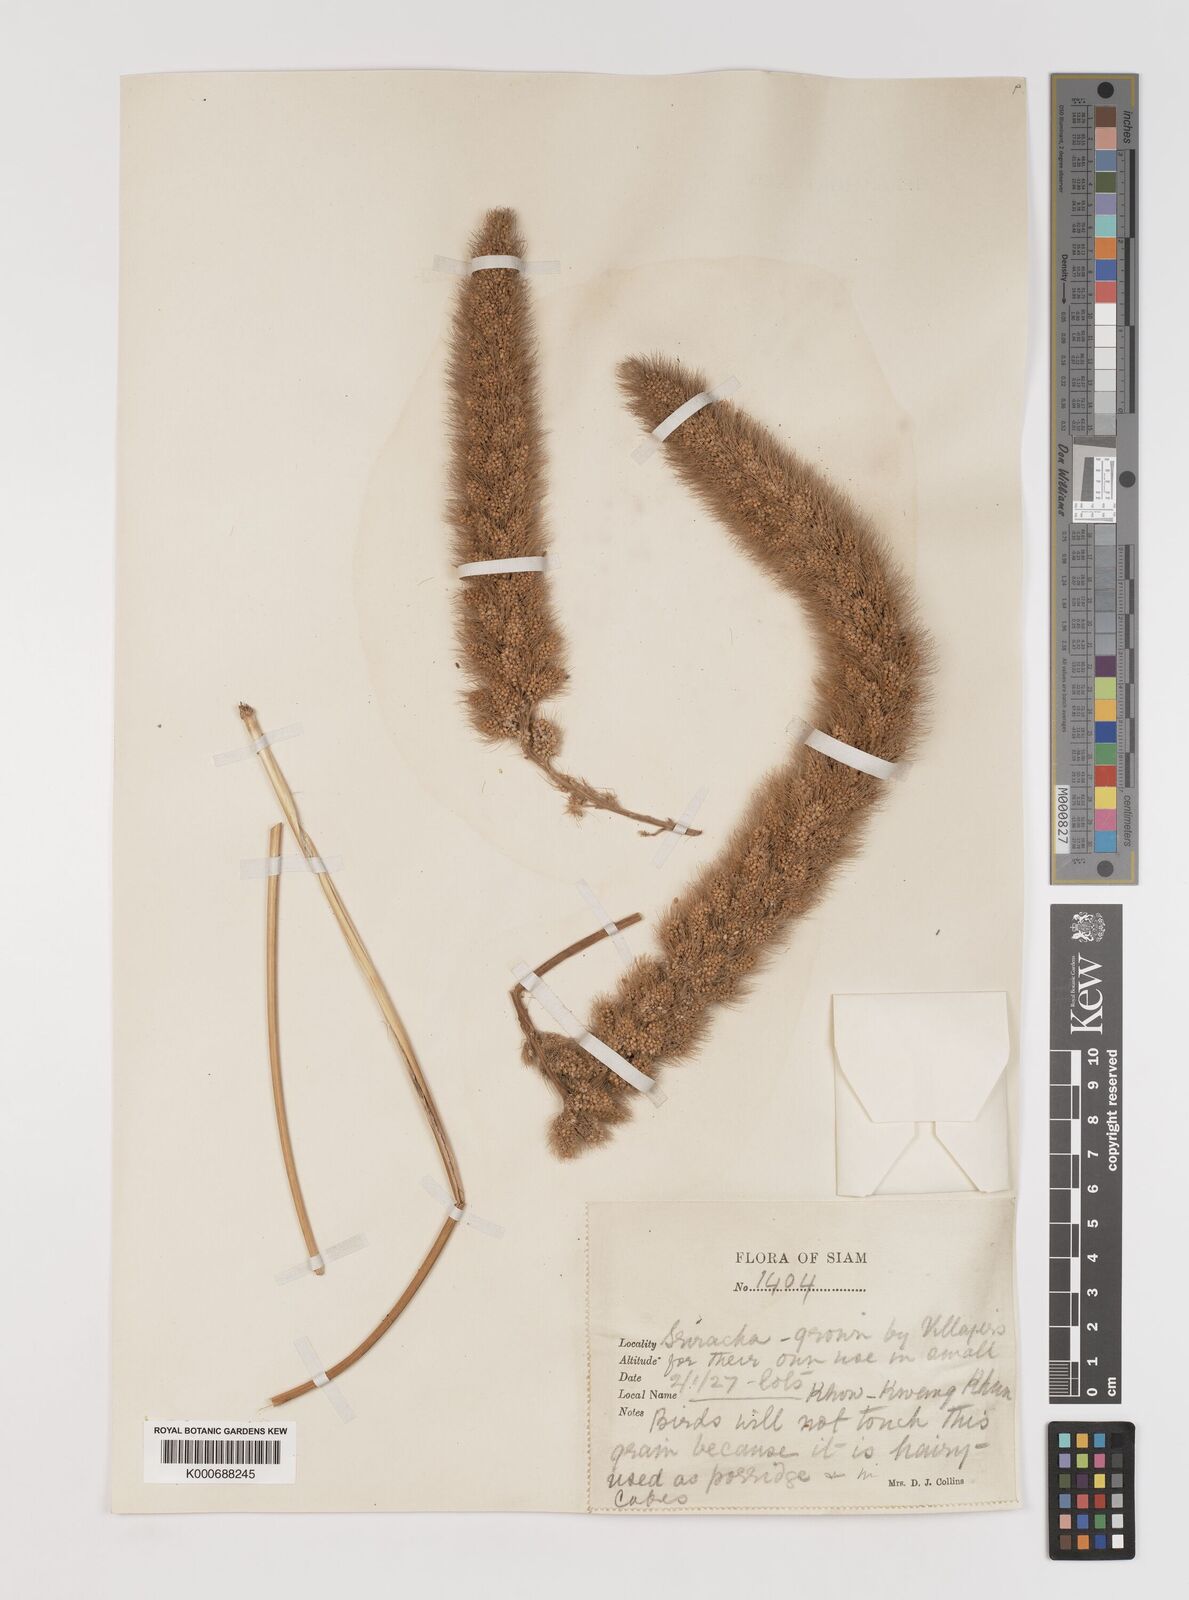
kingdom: Plantae
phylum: Tracheophyta
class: Liliopsida
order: Poales
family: Poaceae
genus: Setaria
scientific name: Setaria italica
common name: Foxtail bristle-grass
